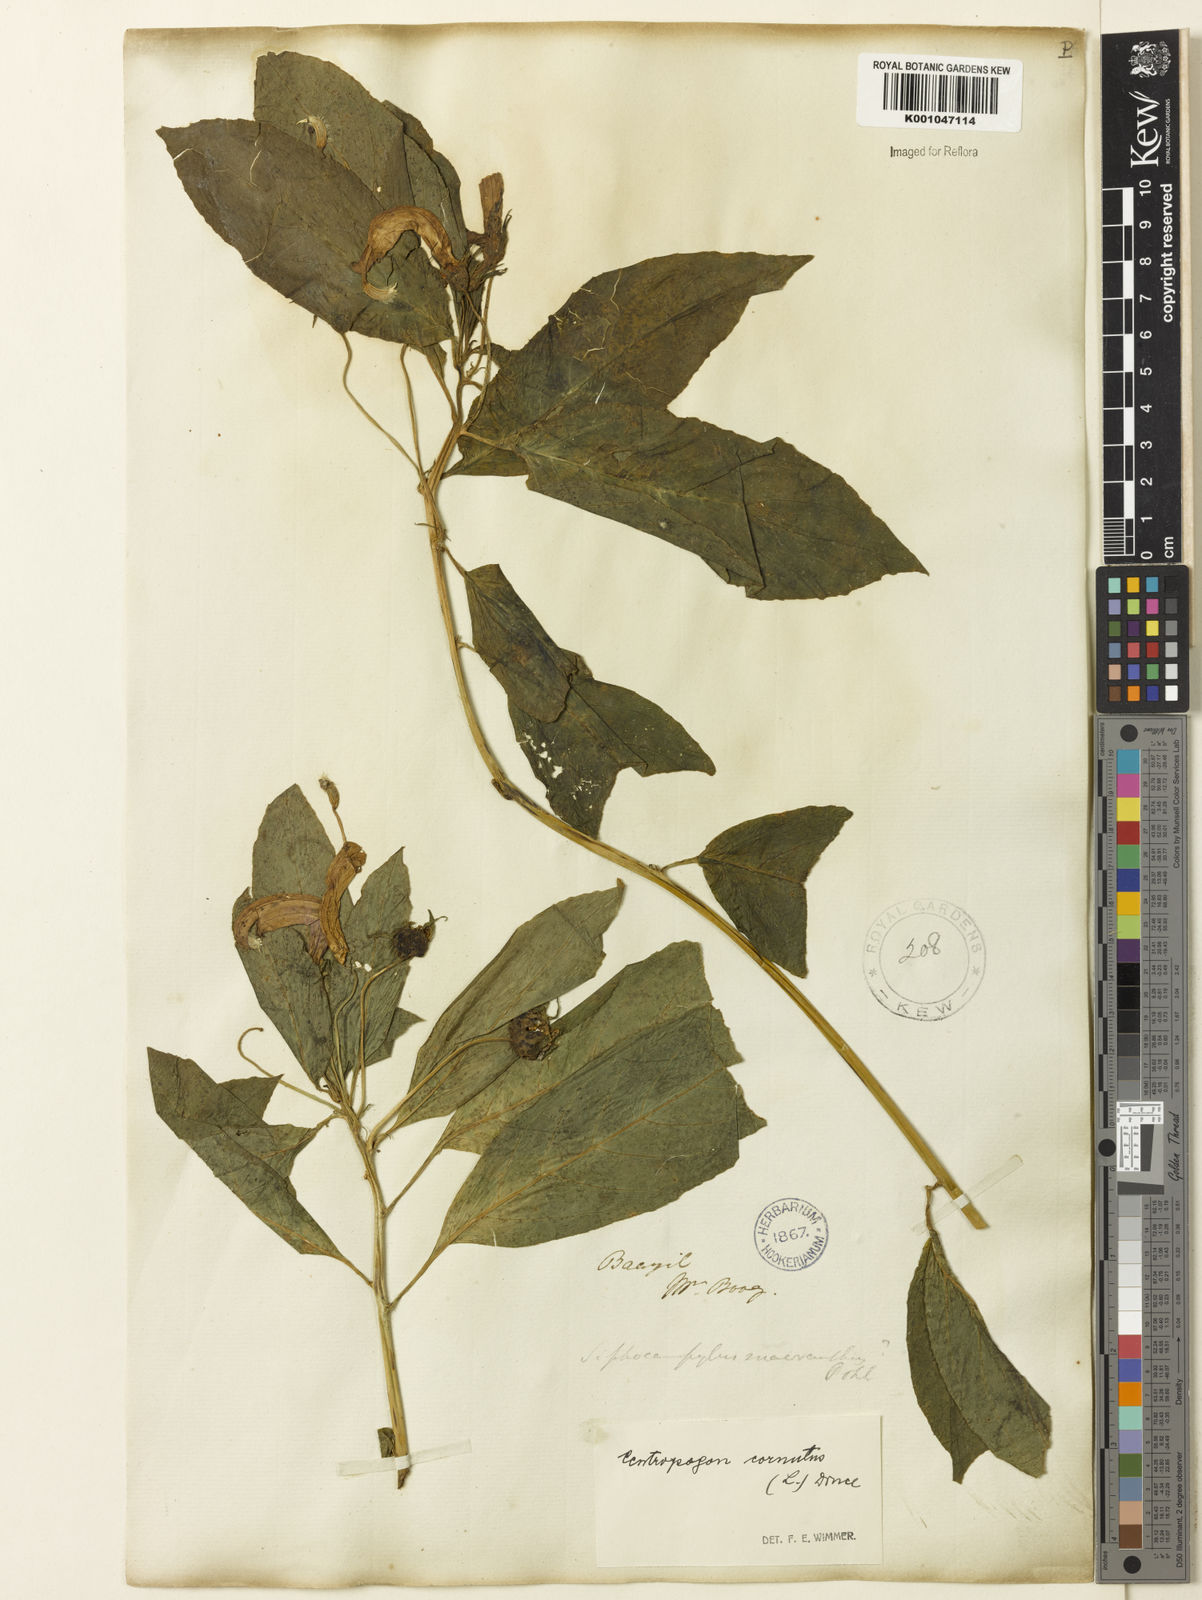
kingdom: Plantae
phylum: Tracheophyta
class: Magnoliopsida
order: Asterales
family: Campanulaceae
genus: Centropogon
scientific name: Centropogon cornutus
